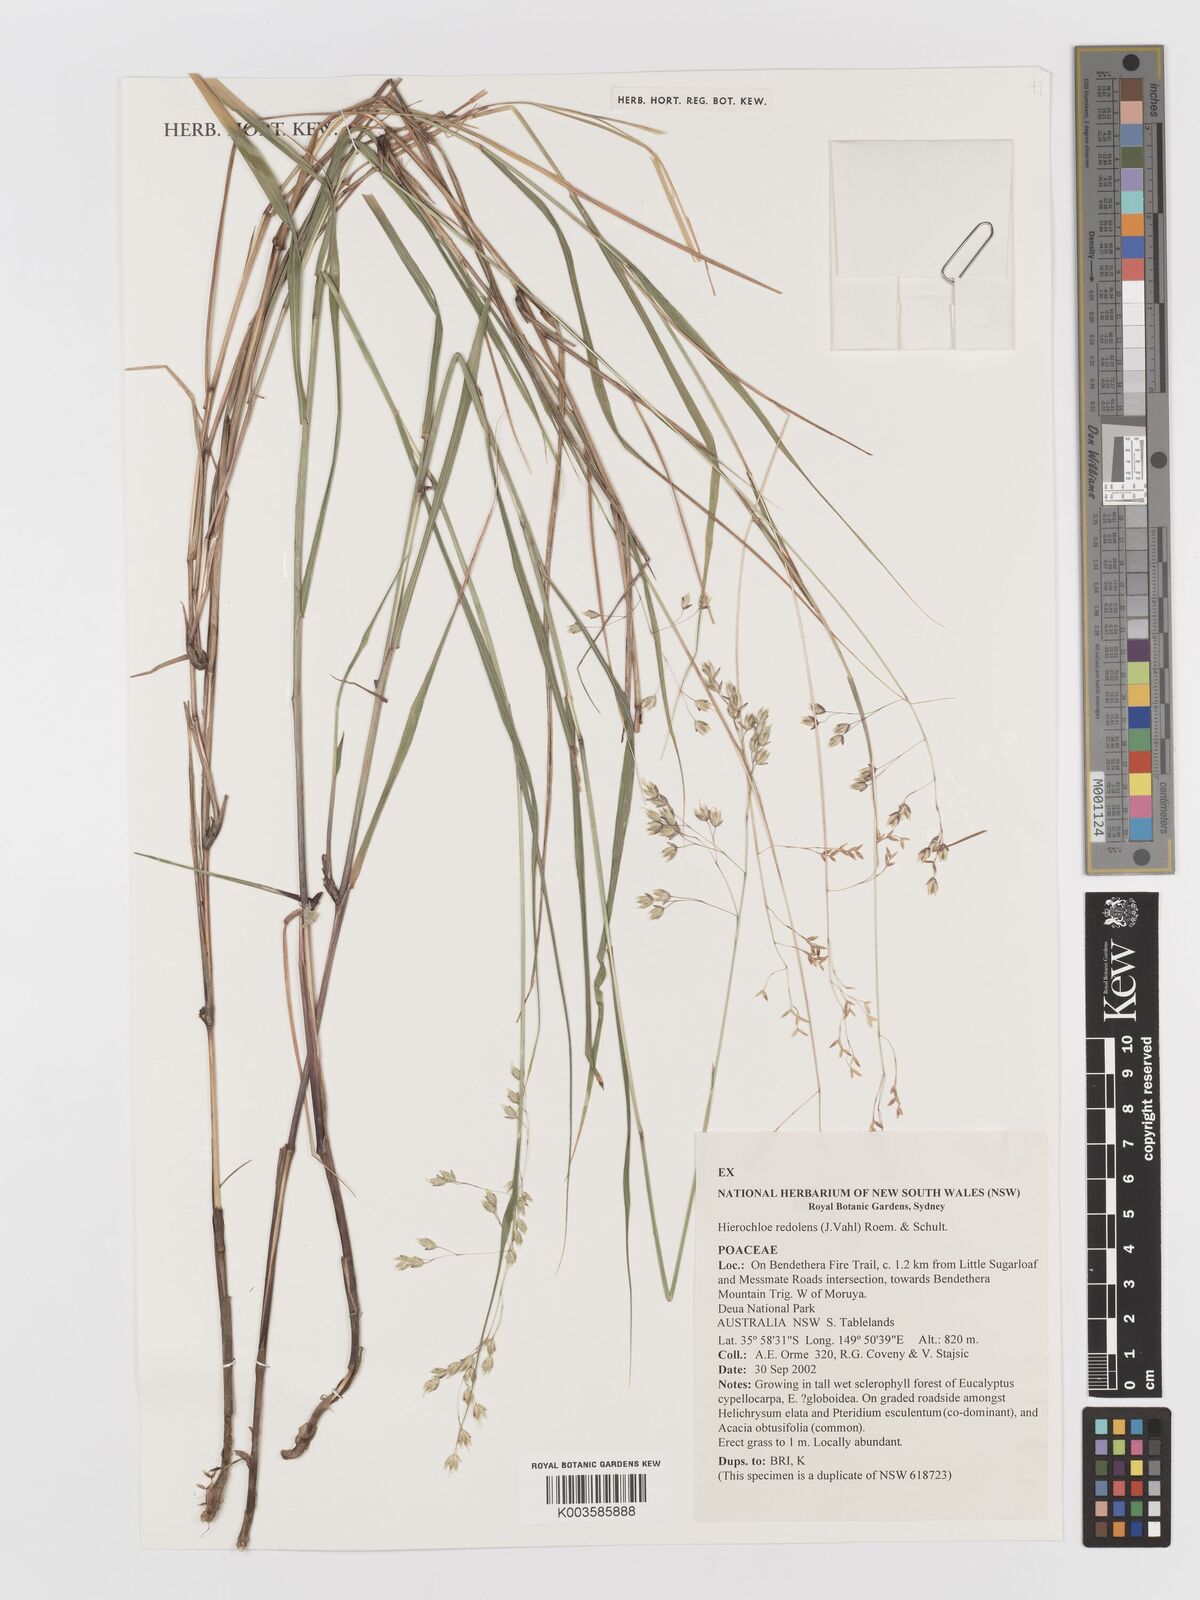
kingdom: Plantae
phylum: Tracheophyta
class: Liliopsida
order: Poales
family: Poaceae
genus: Anthoxanthum
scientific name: Anthoxanthum redolens
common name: Sweet holy grass
